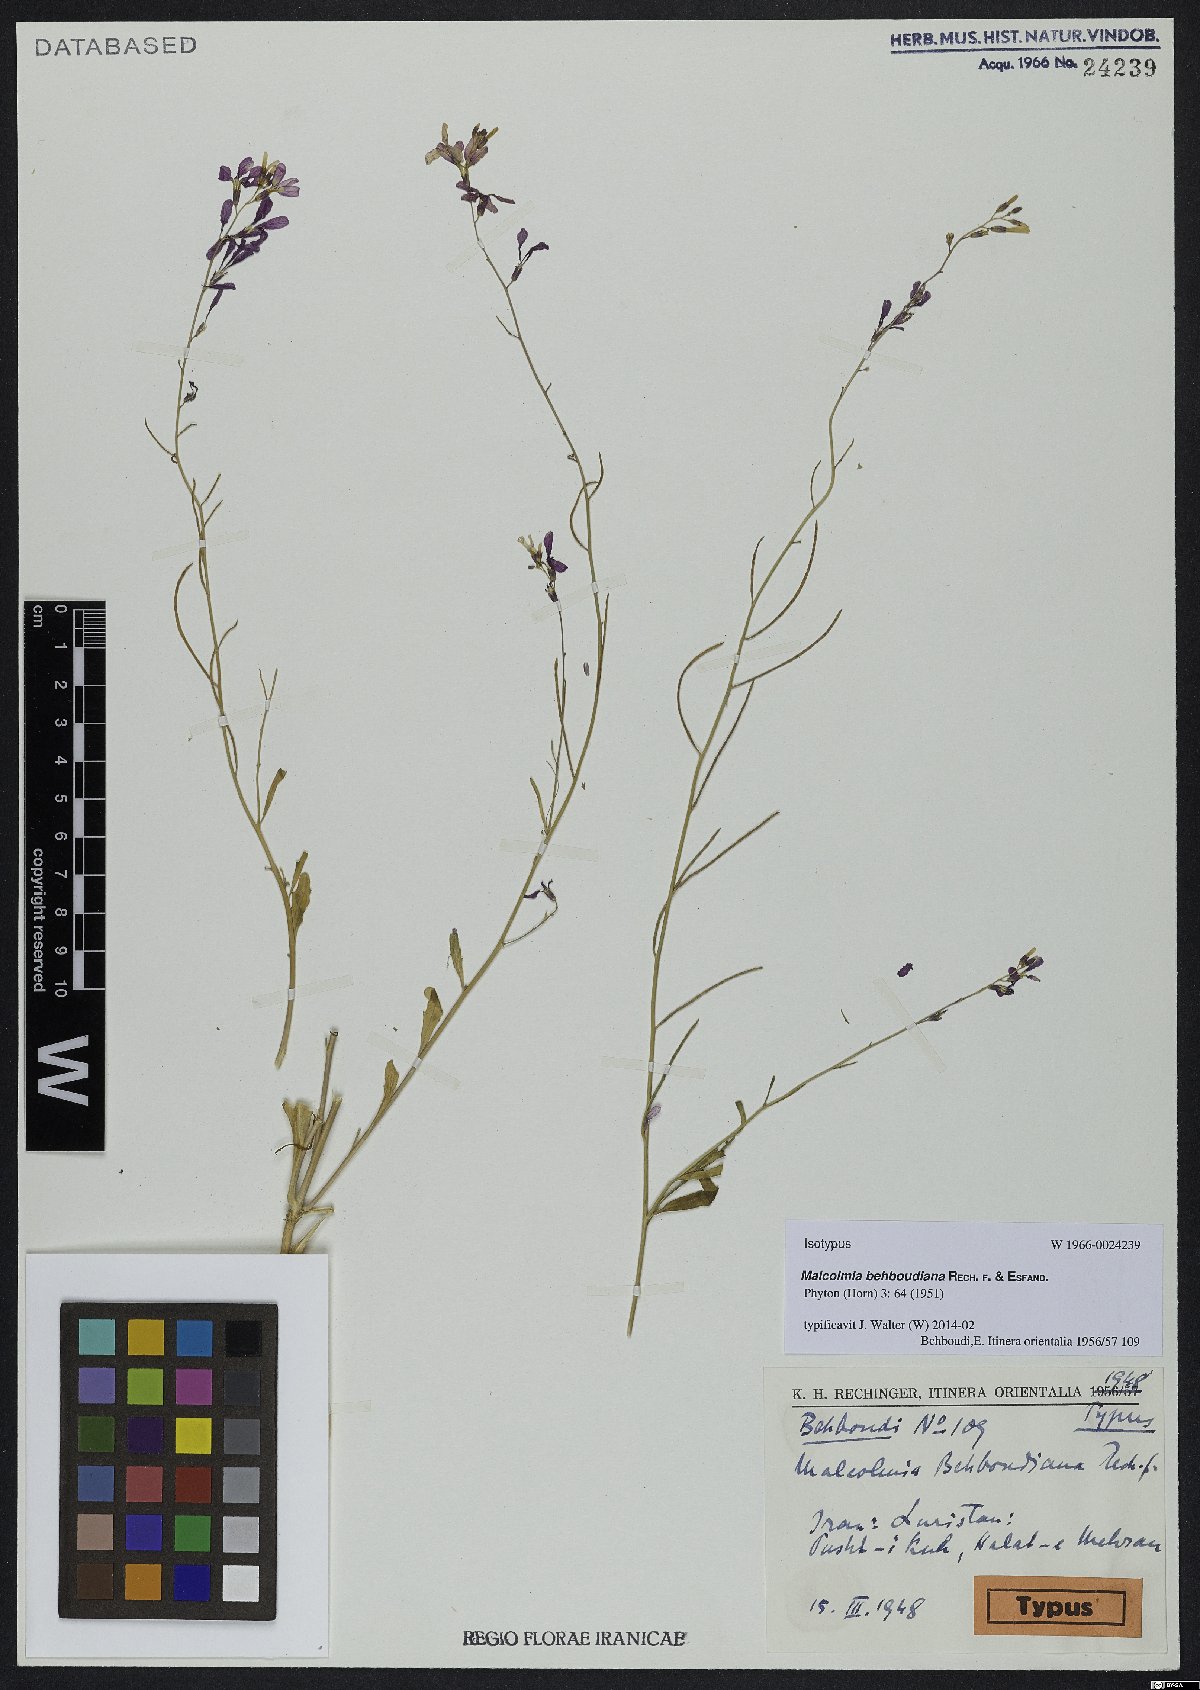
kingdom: Plantae
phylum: Tracheophyta
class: Magnoliopsida
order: Brassicales
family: Brassicaceae
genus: Strigosella
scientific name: Strigosella behboudiana
